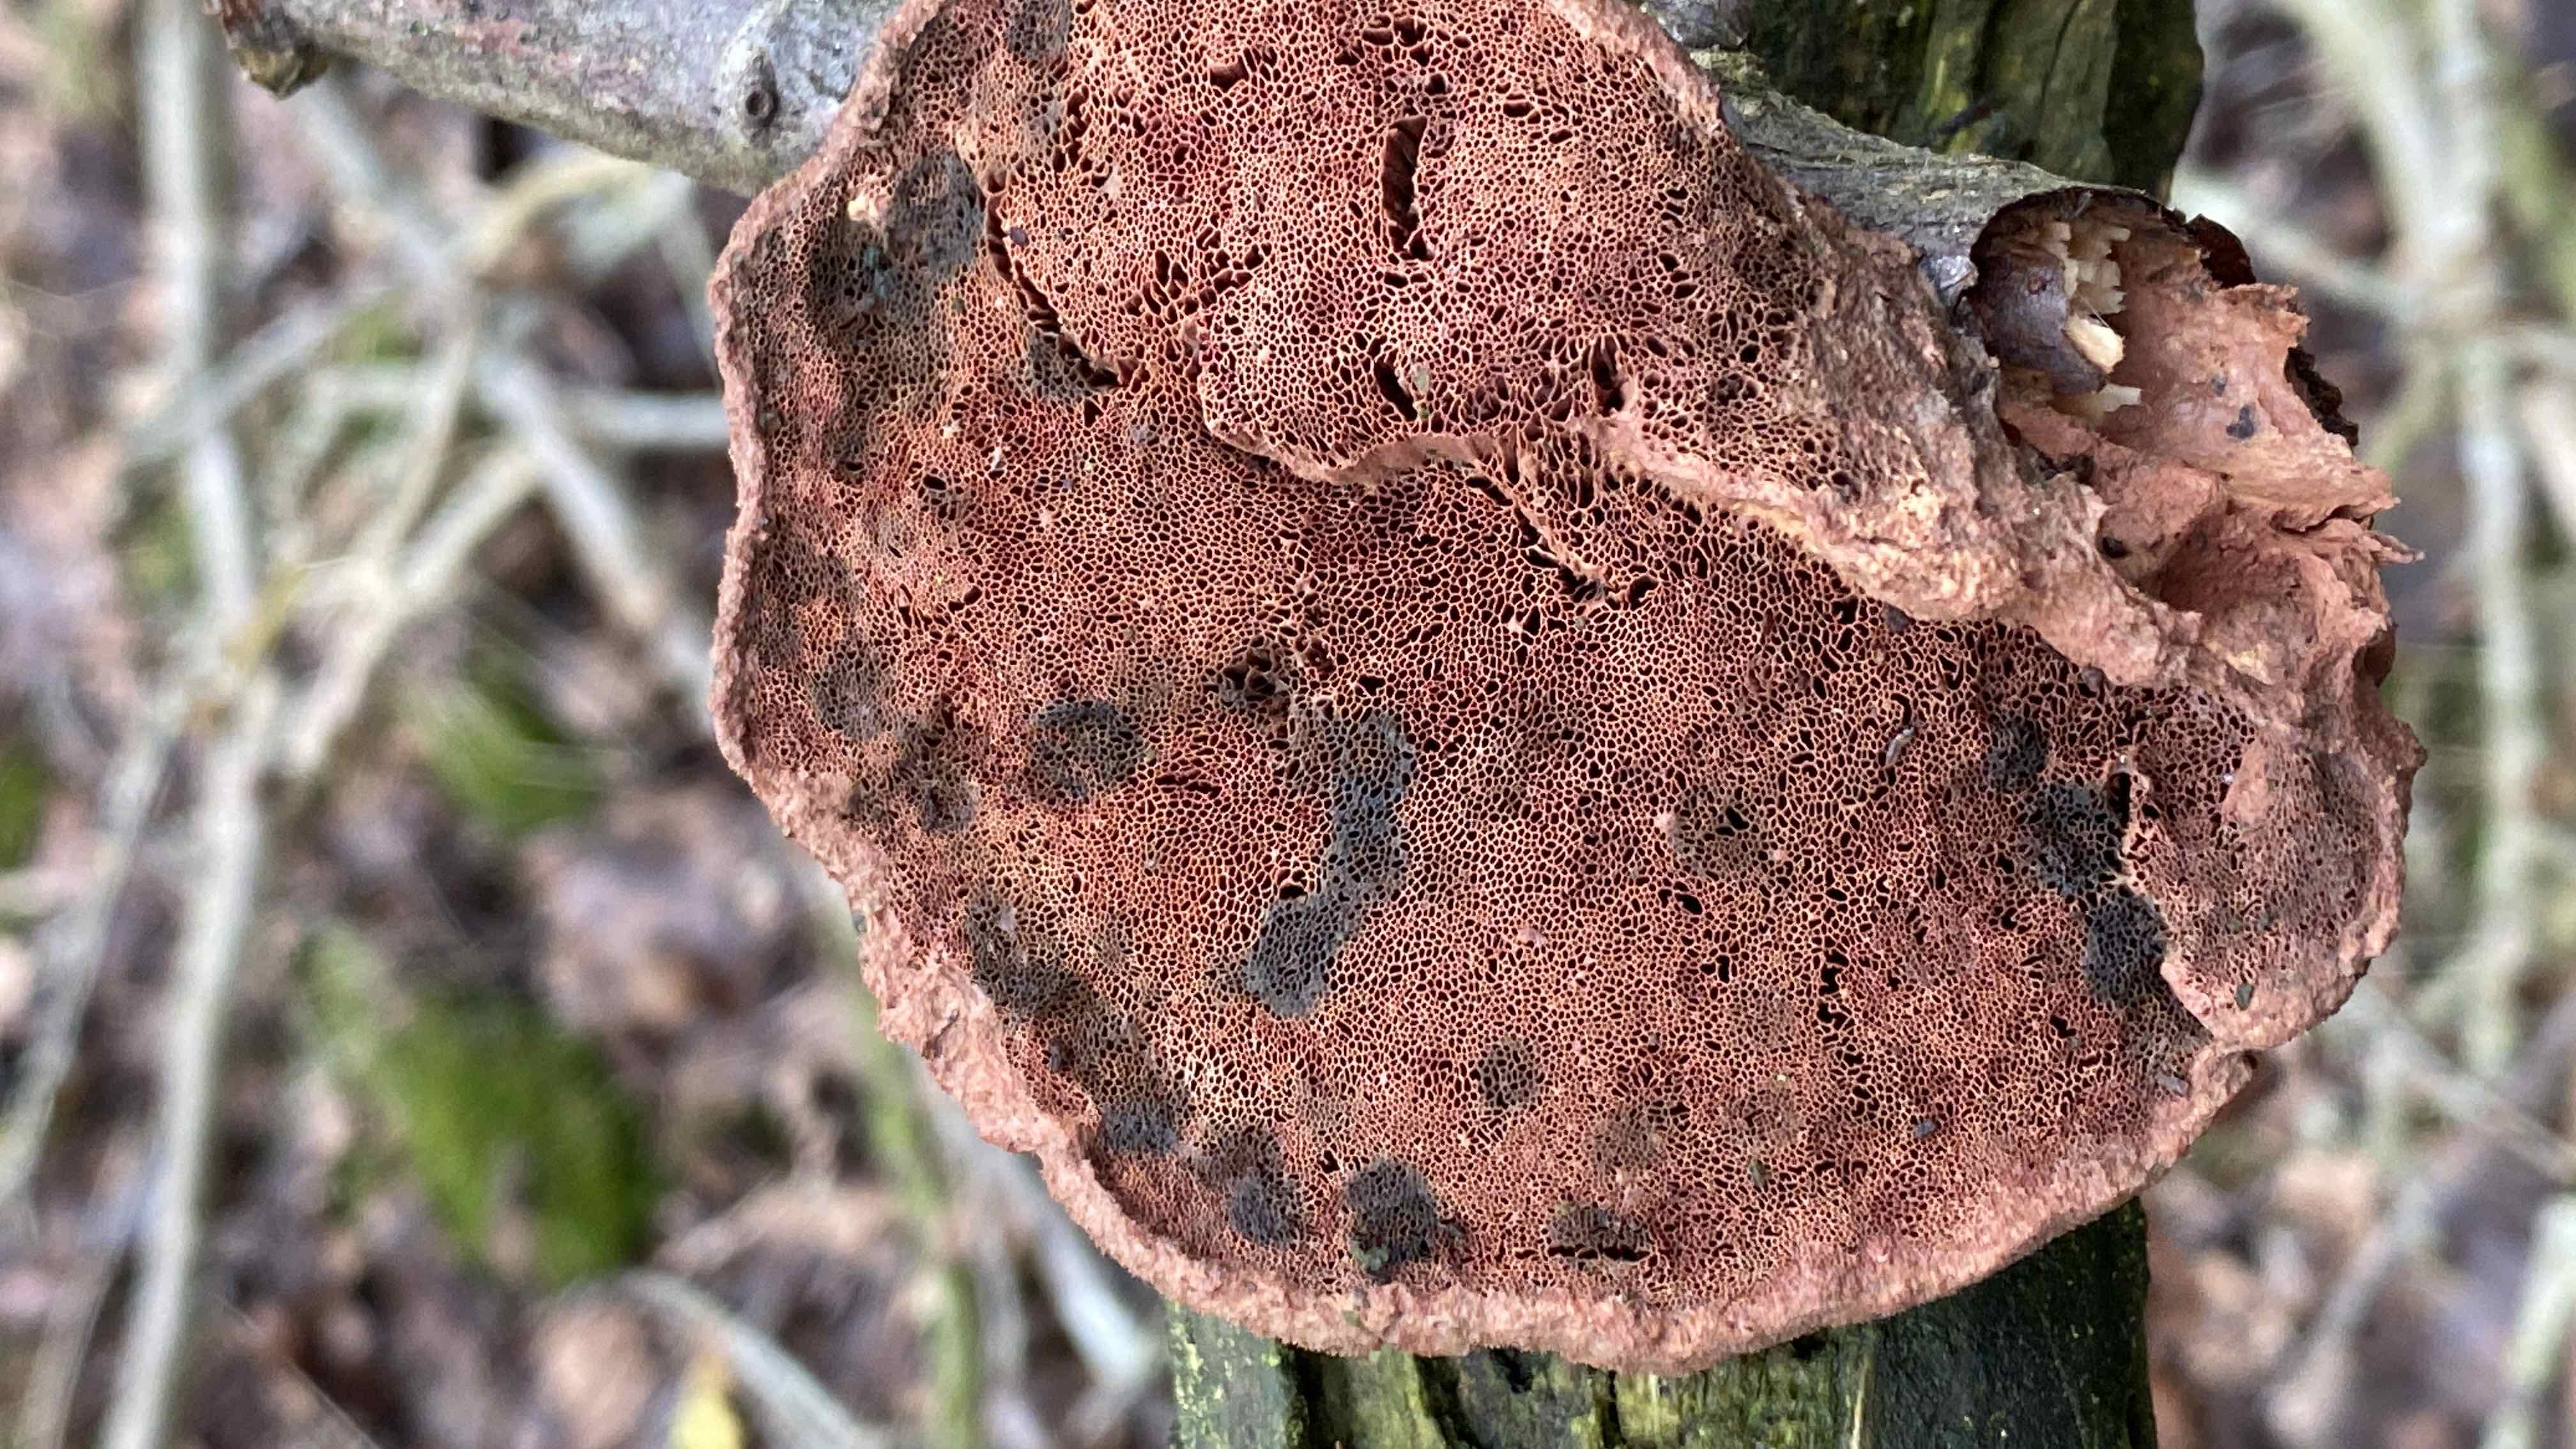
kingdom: Fungi
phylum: Basidiomycota
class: Agaricomycetes
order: Polyporales
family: Phanerochaetaceae
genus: Hapalopilus
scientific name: Hapalopilus rutilans
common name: rødlig okkerporesvamp
